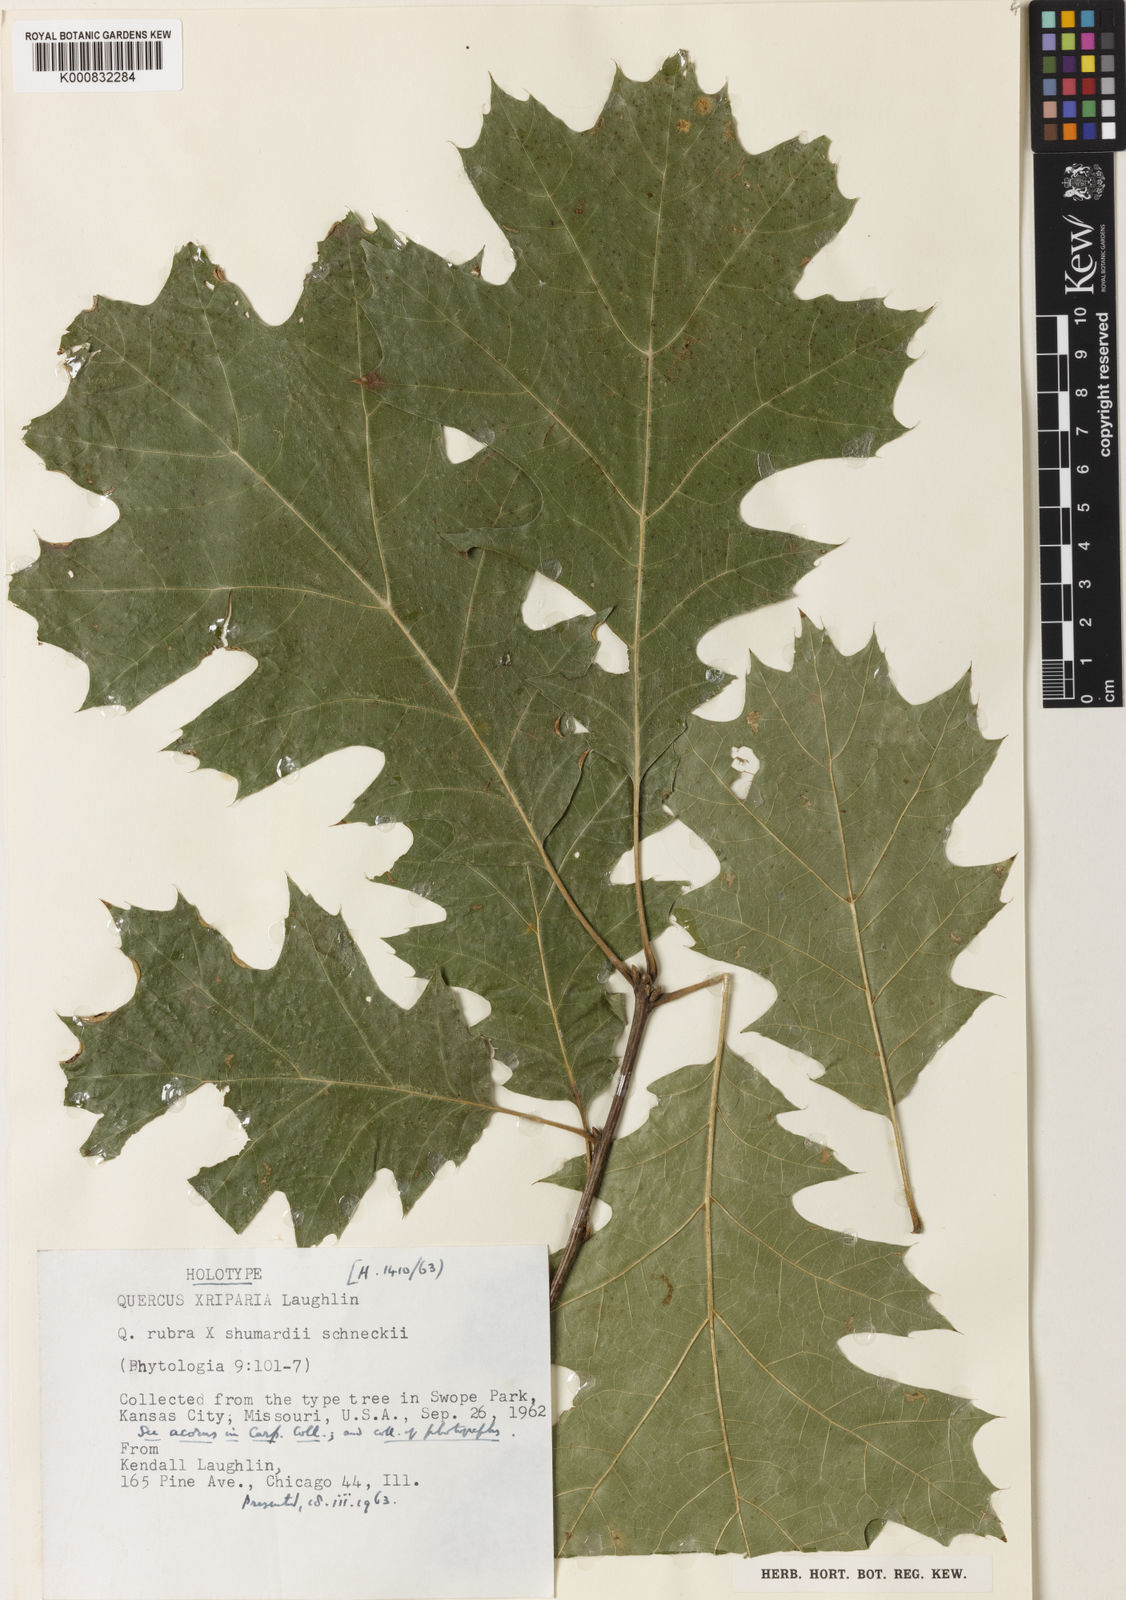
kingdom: Plantae
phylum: Tracheophyta
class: Magnoliopsida
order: Fagales
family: Fagaceae
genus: Quercus
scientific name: Quercus riparia
